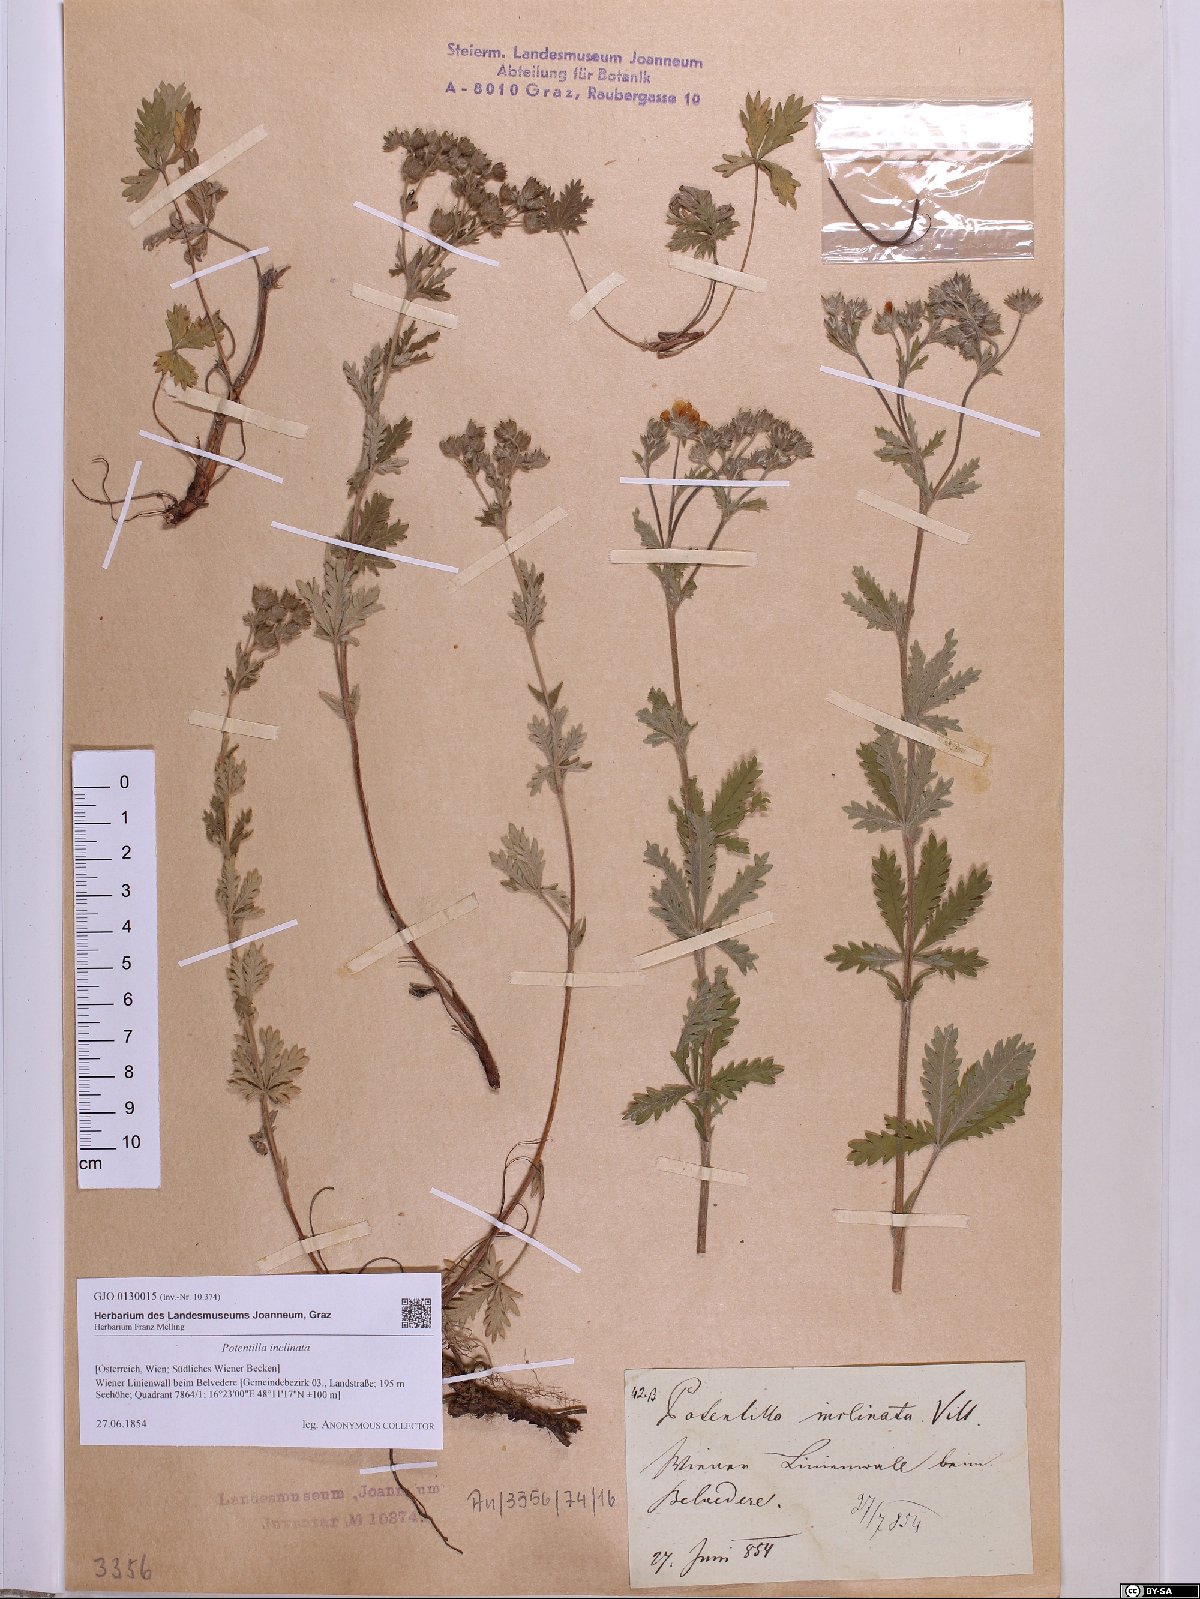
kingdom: Plantae
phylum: Tracheophyta
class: Magnoliopsida
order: Rosales
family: Rosaceae
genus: Potentilla
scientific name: Potentilla inclinata
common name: Grey cinquefoil
